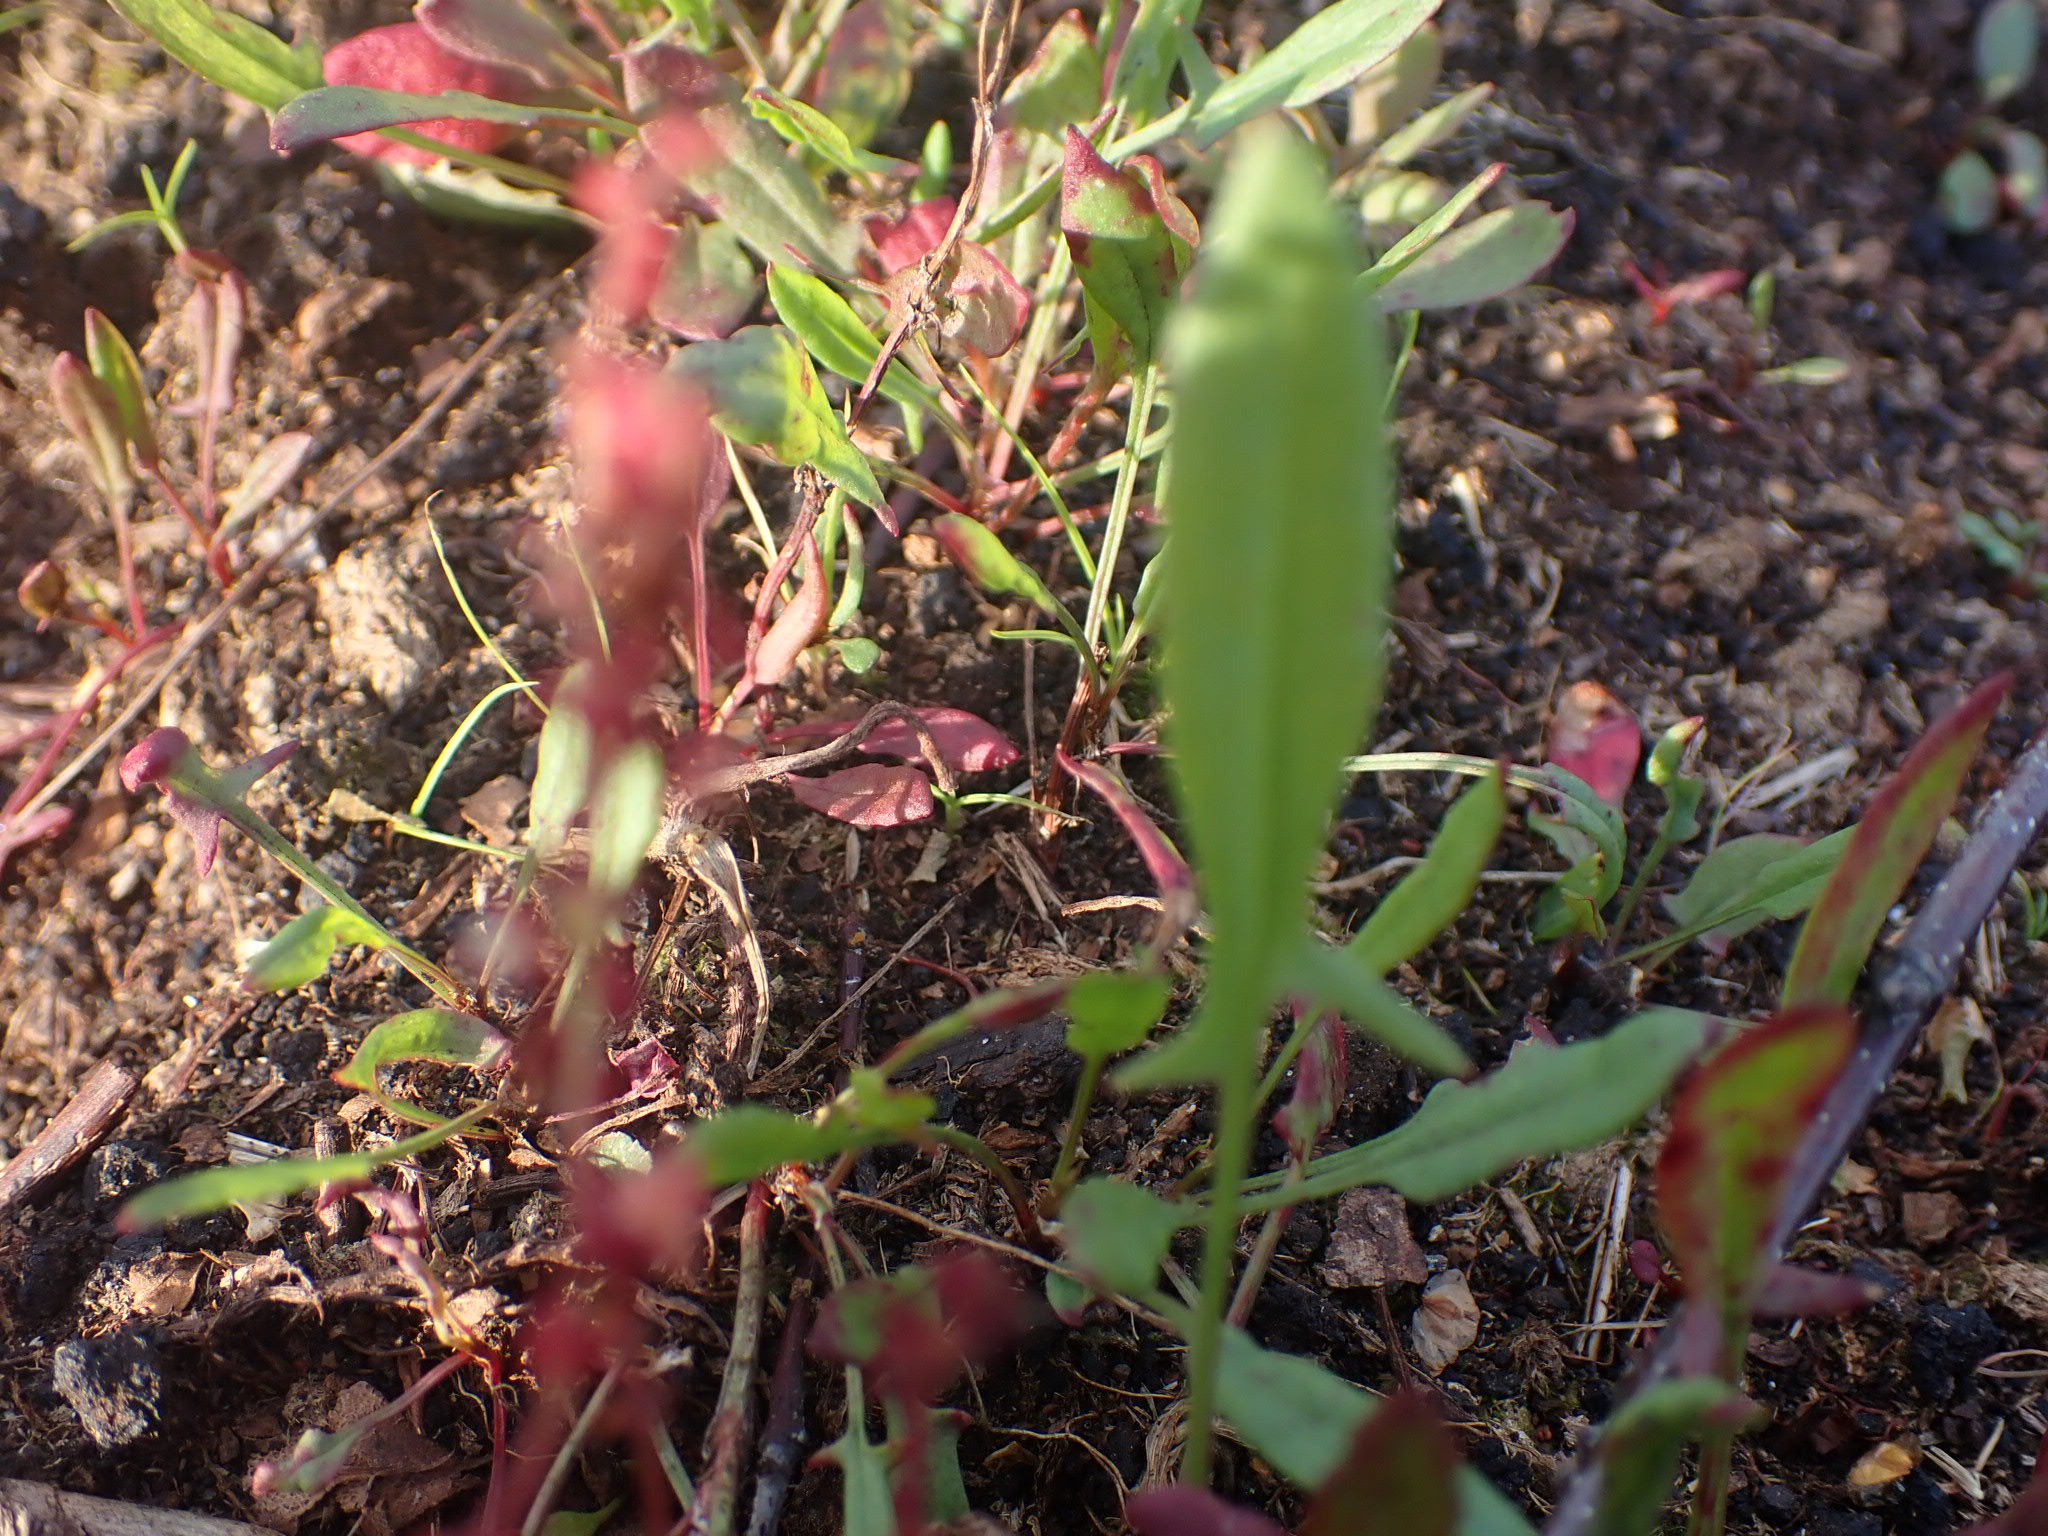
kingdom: Plantae
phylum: Tracheophyta
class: Magnoliopsida
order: Caryophyllales
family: Polygonaceae
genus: Rumex
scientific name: Rumex acetosella
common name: Rødknæ
